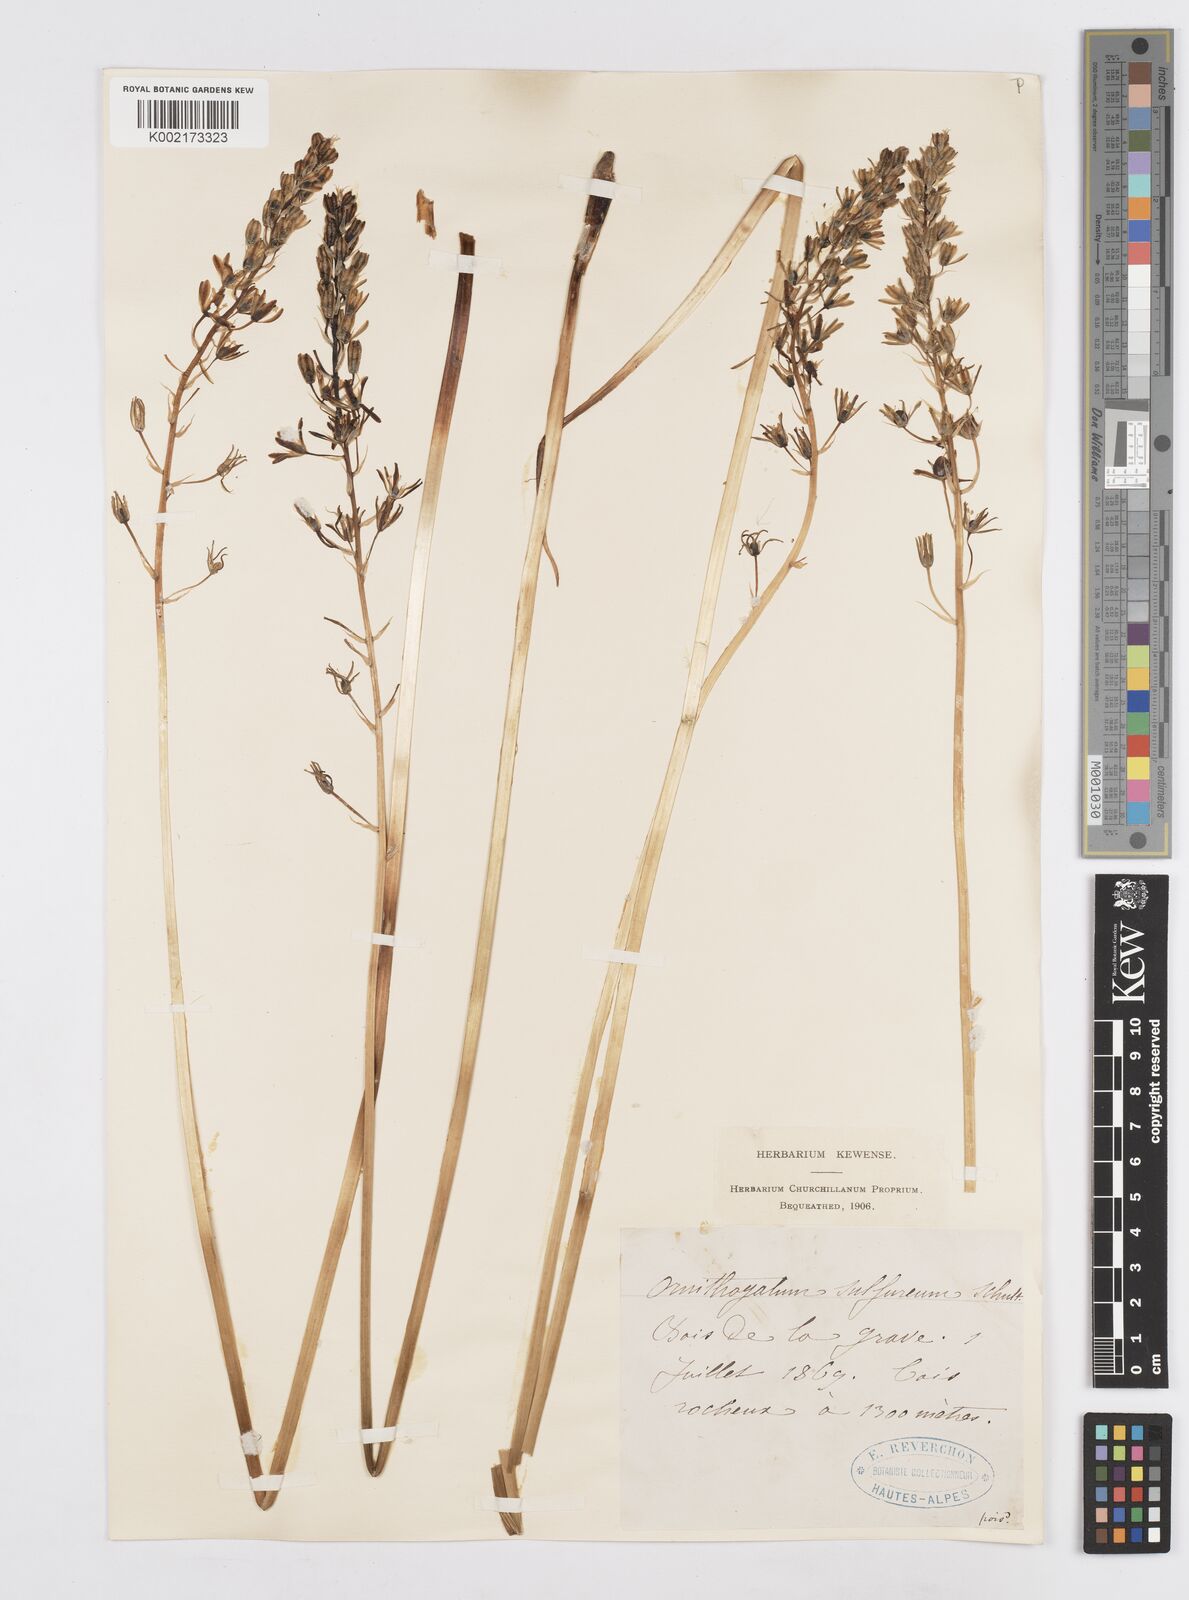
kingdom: Plantae
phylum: Tracheophyta
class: Liliopsida
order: Asparagales
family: Asparagaceae
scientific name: Asparagaceae
